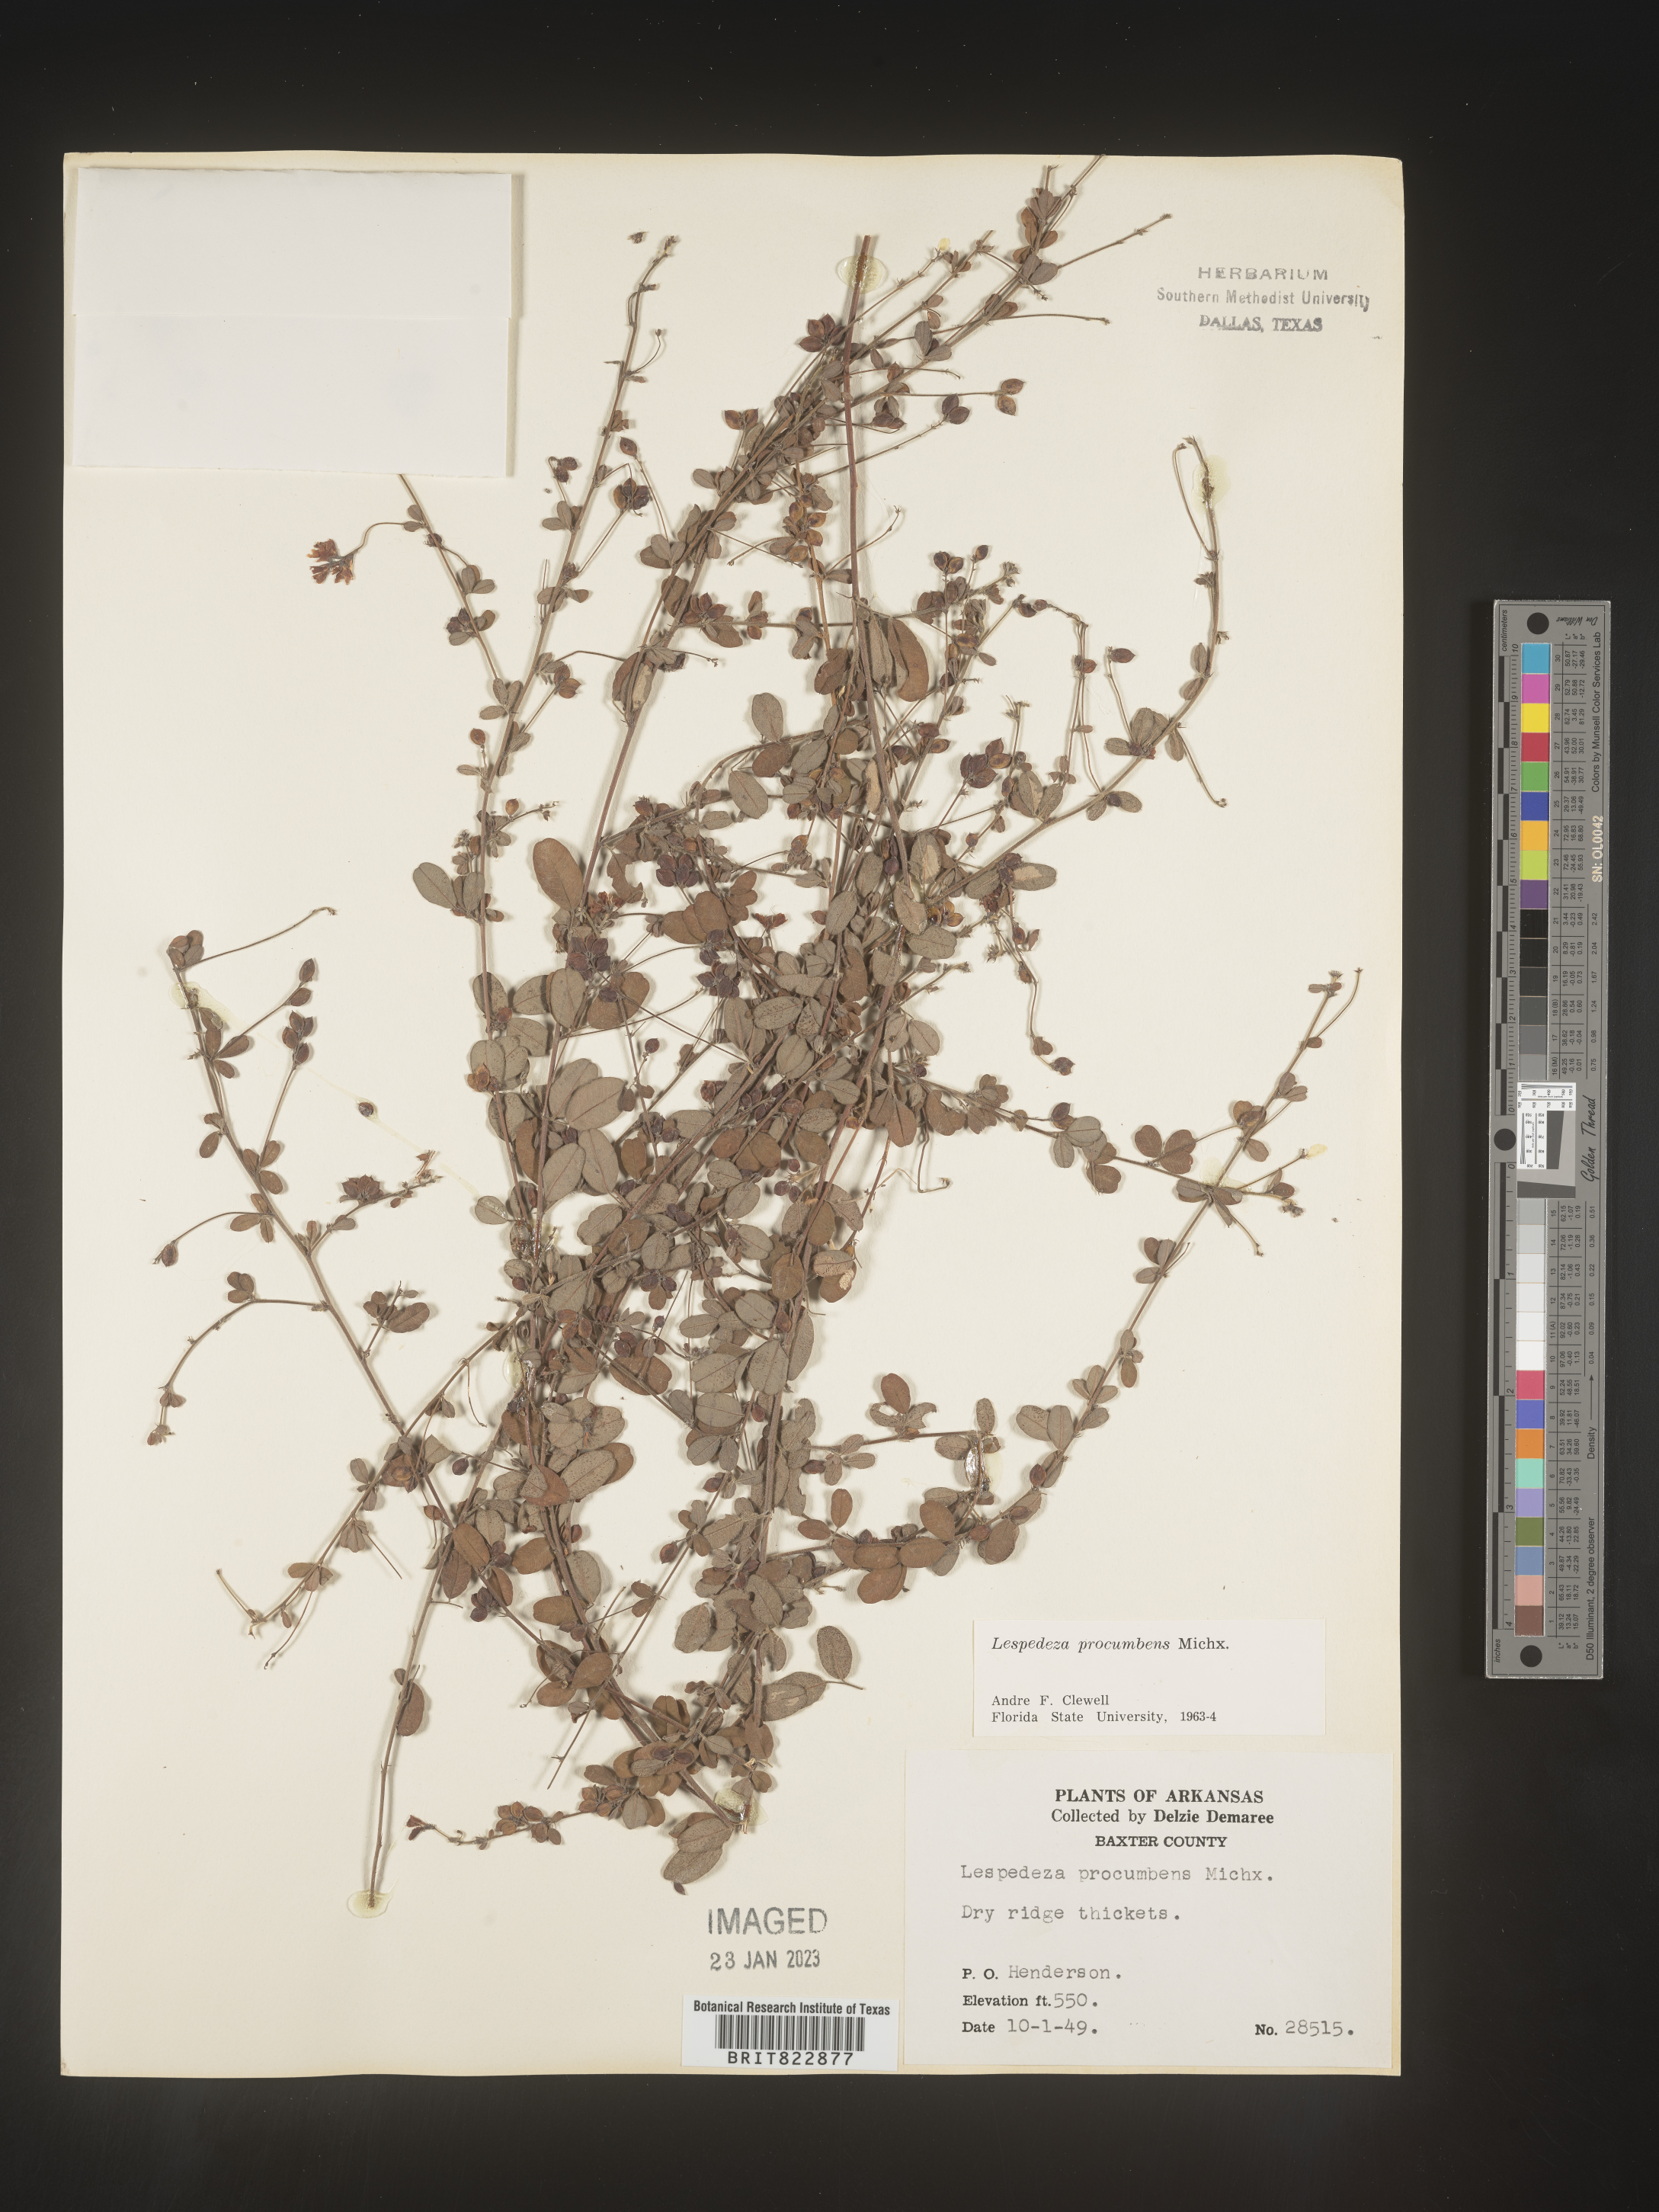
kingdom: Plantae
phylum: Tracheophyta
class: Magnoliopsida
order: Fabales
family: Fabaceae
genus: Lespedeza
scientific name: Lespedeza procumbens
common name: Downy trailing bush-clover
